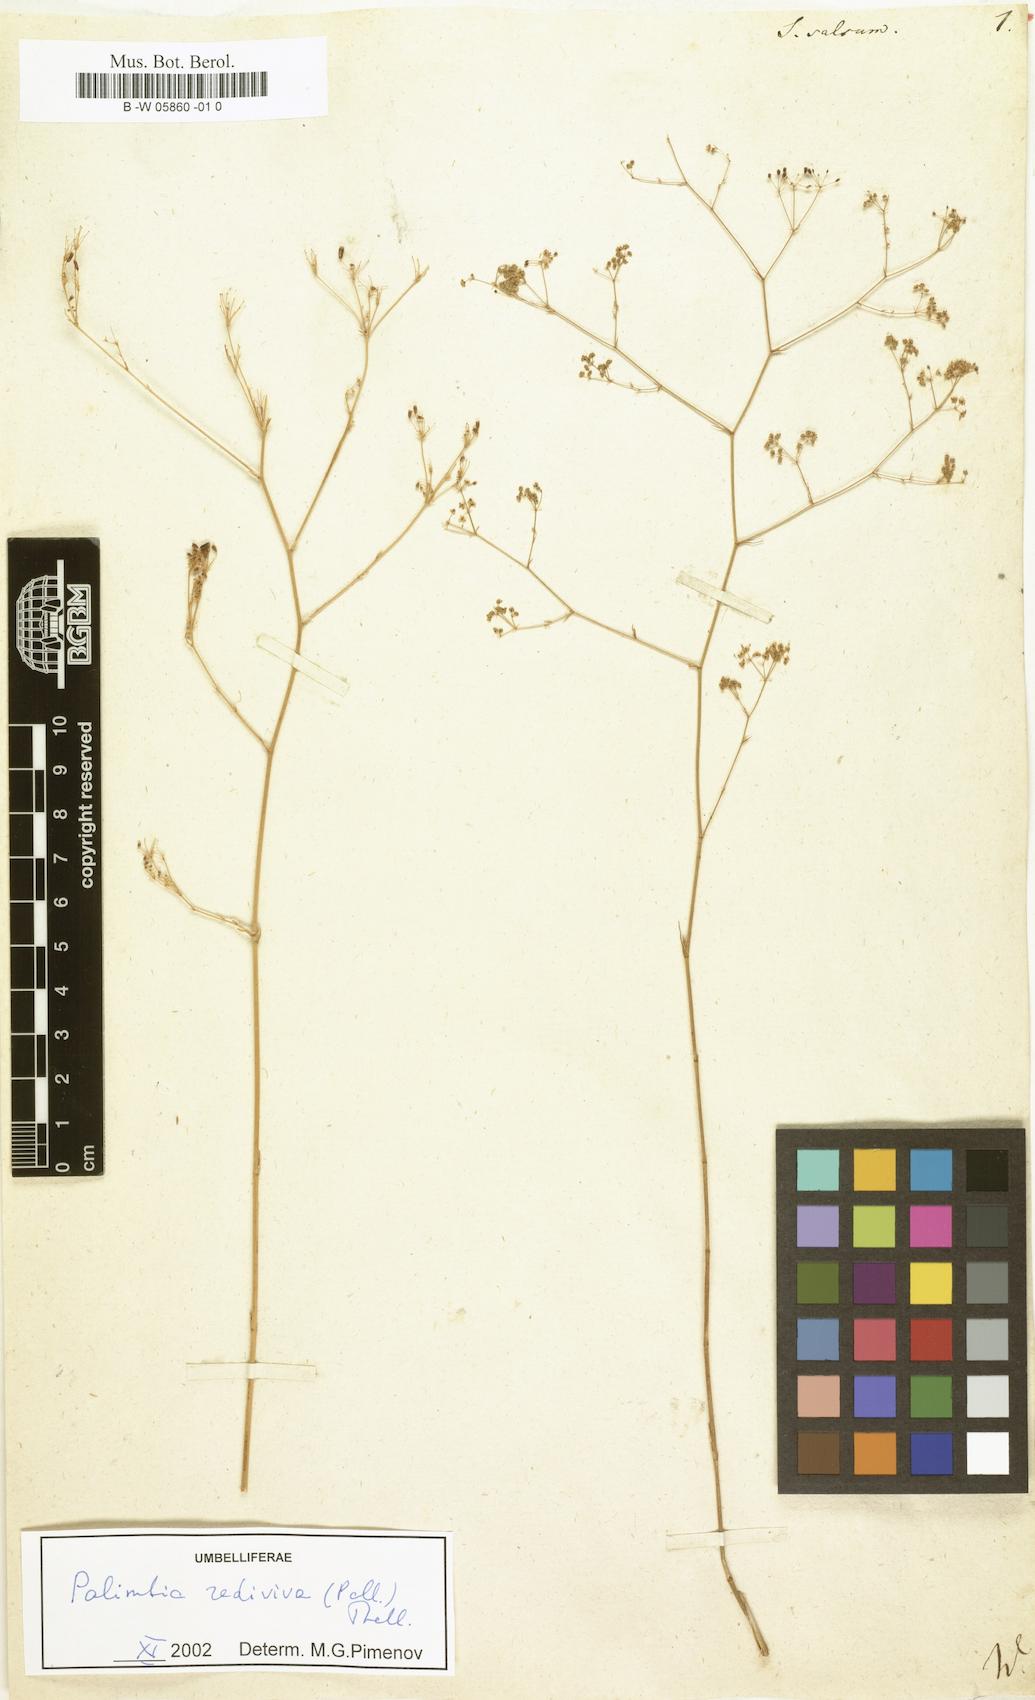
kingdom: Plantae
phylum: Tracheophyta
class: Magnoliopsida
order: Apiales
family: Apiaceae
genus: Palimbia
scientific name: Palimbia rediviva
